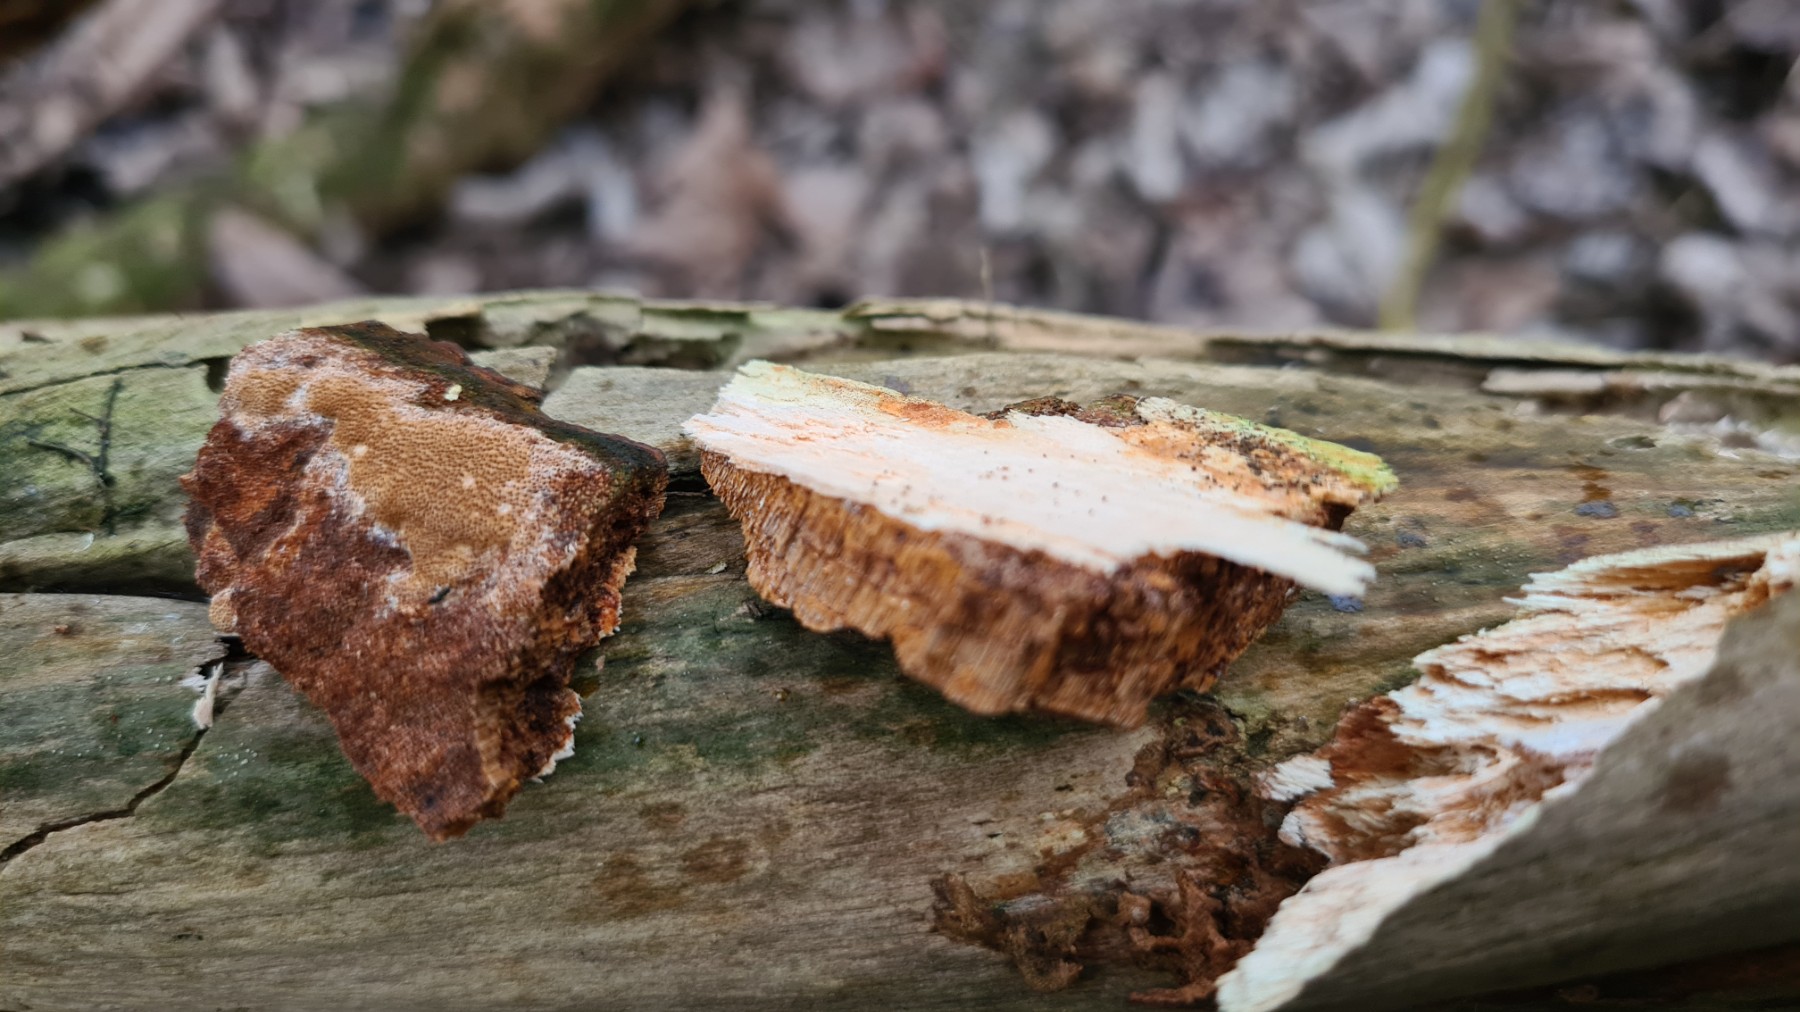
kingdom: Fungi
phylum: Basidiomycota
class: Agaricomycetes
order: Hymenochaetales
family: Hymenochaetaceae
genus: Fuscoporia
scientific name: Fuscoporia ferrea
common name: skorpe-ildporesvamp
